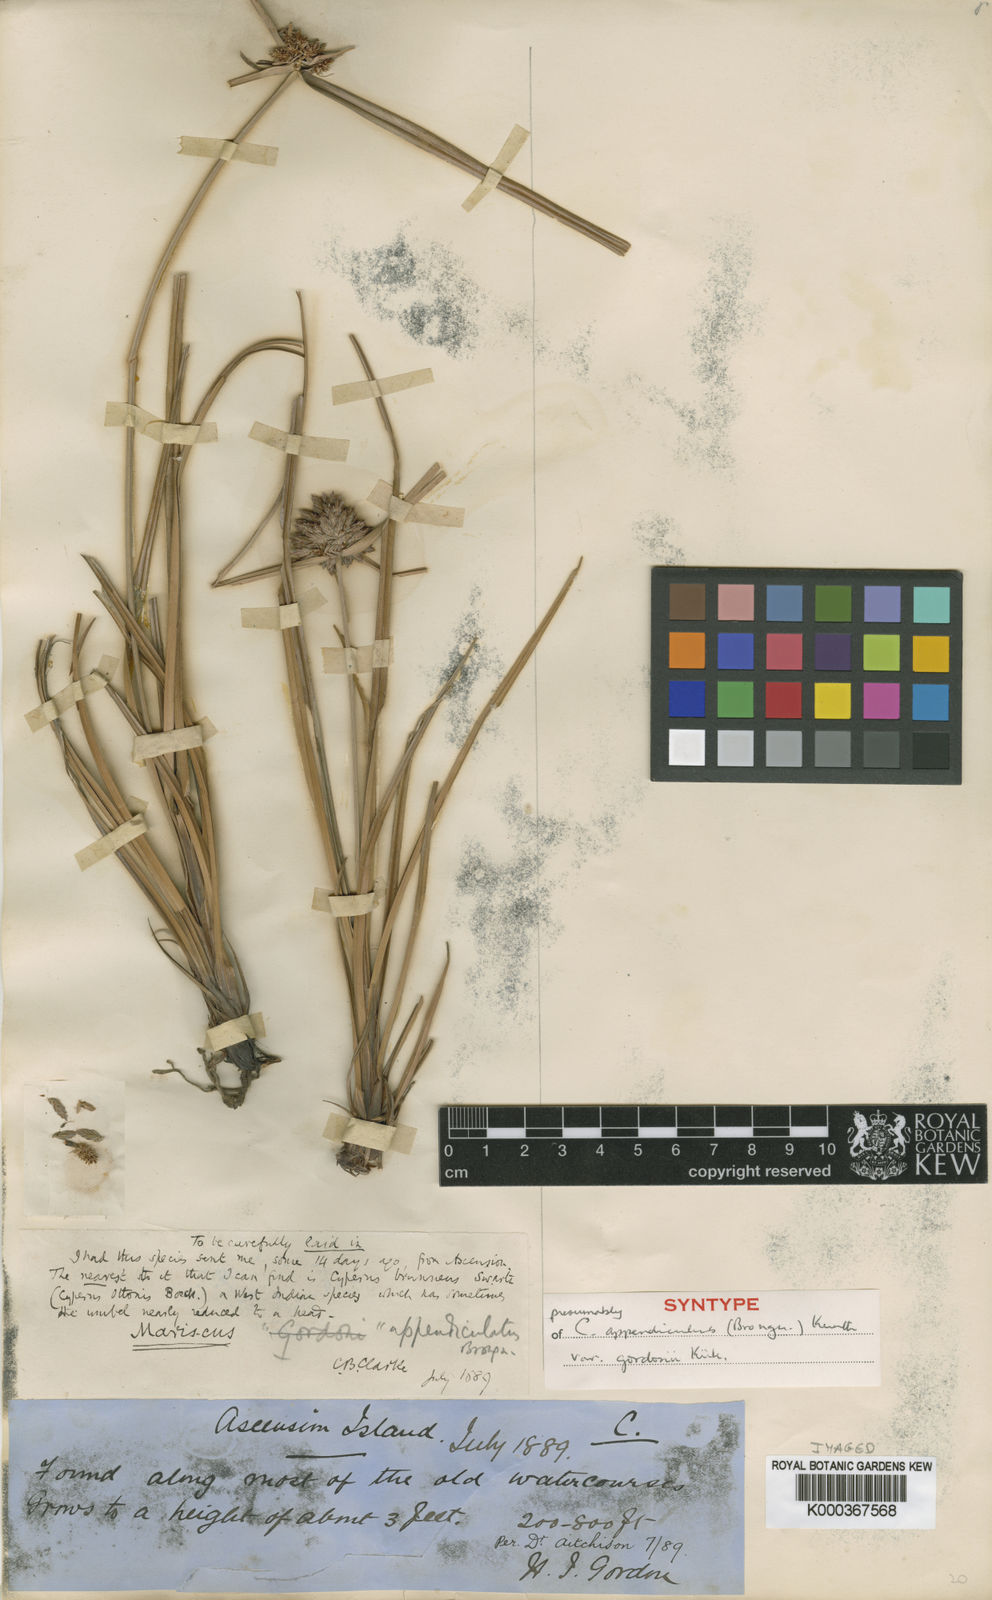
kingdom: Plantae
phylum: Tracheophyta
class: Liliopsida
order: Poales
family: Cyperaceae
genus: Cyperus
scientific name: Cyperus appendiculatus
